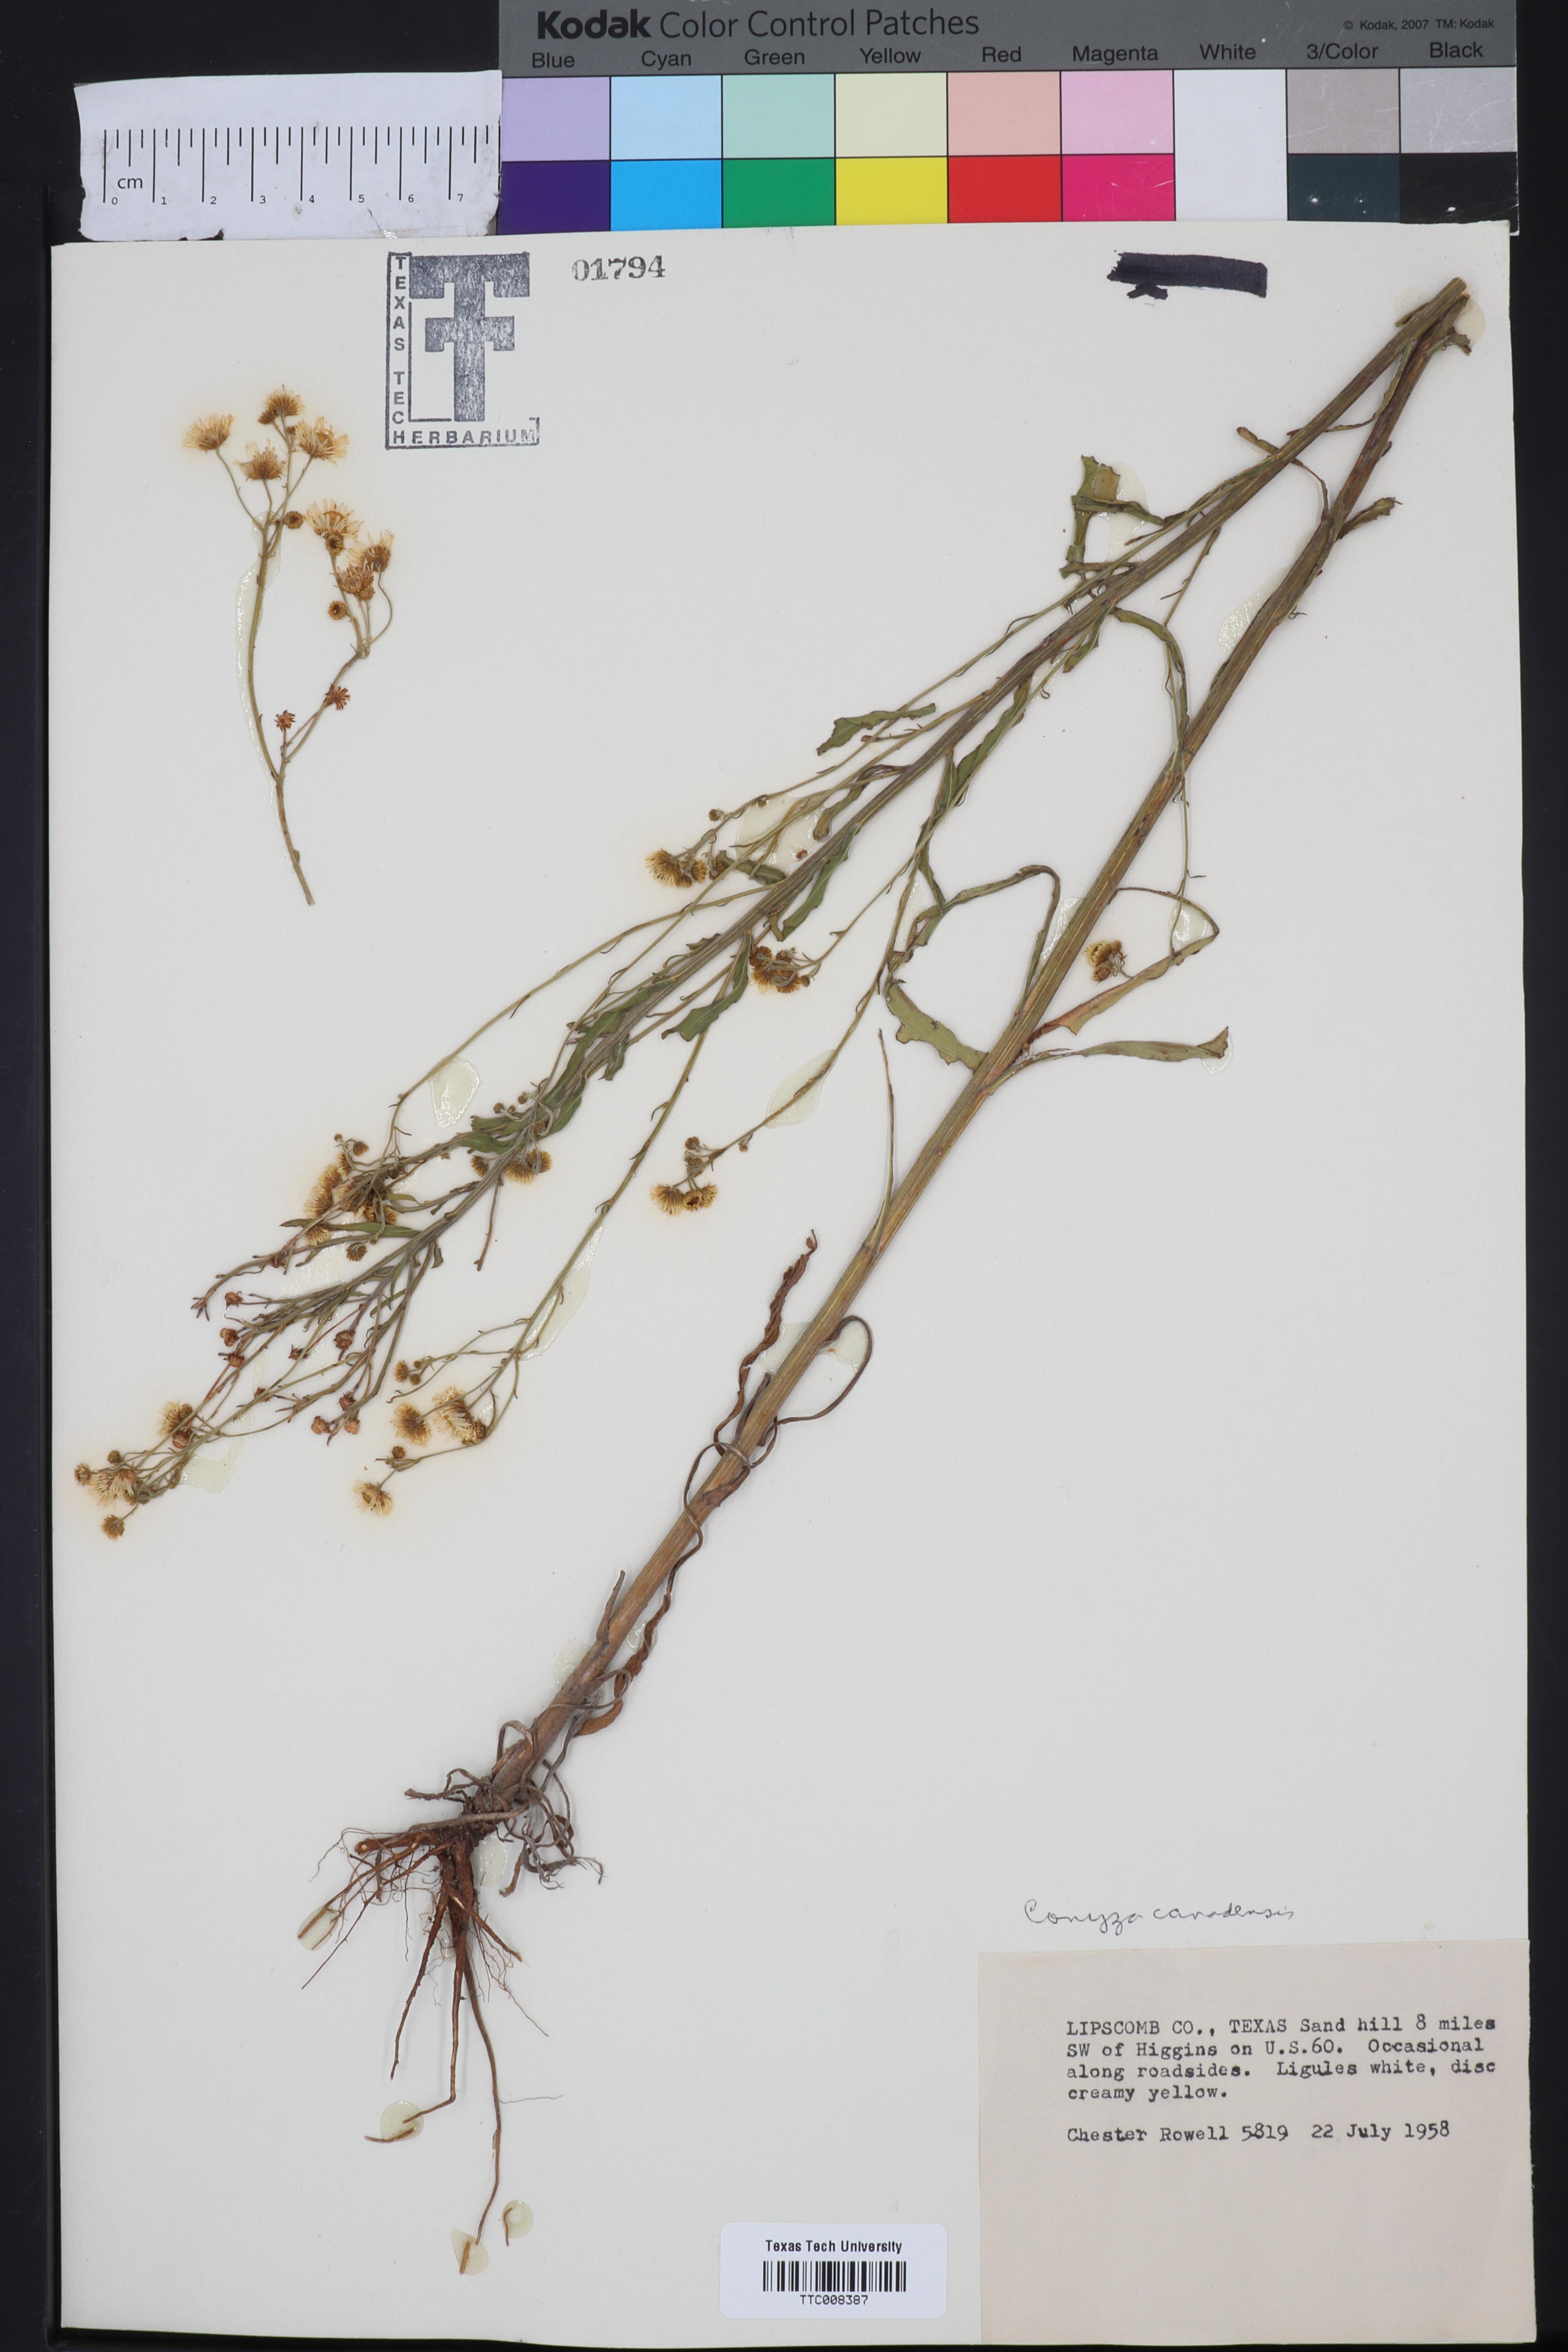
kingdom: Plantae
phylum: Tracheophyta
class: Magnoliopsida
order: Asterales
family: Asteraceae
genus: Erigeron
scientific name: Erigeron canadensis
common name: Canadian fleabane
